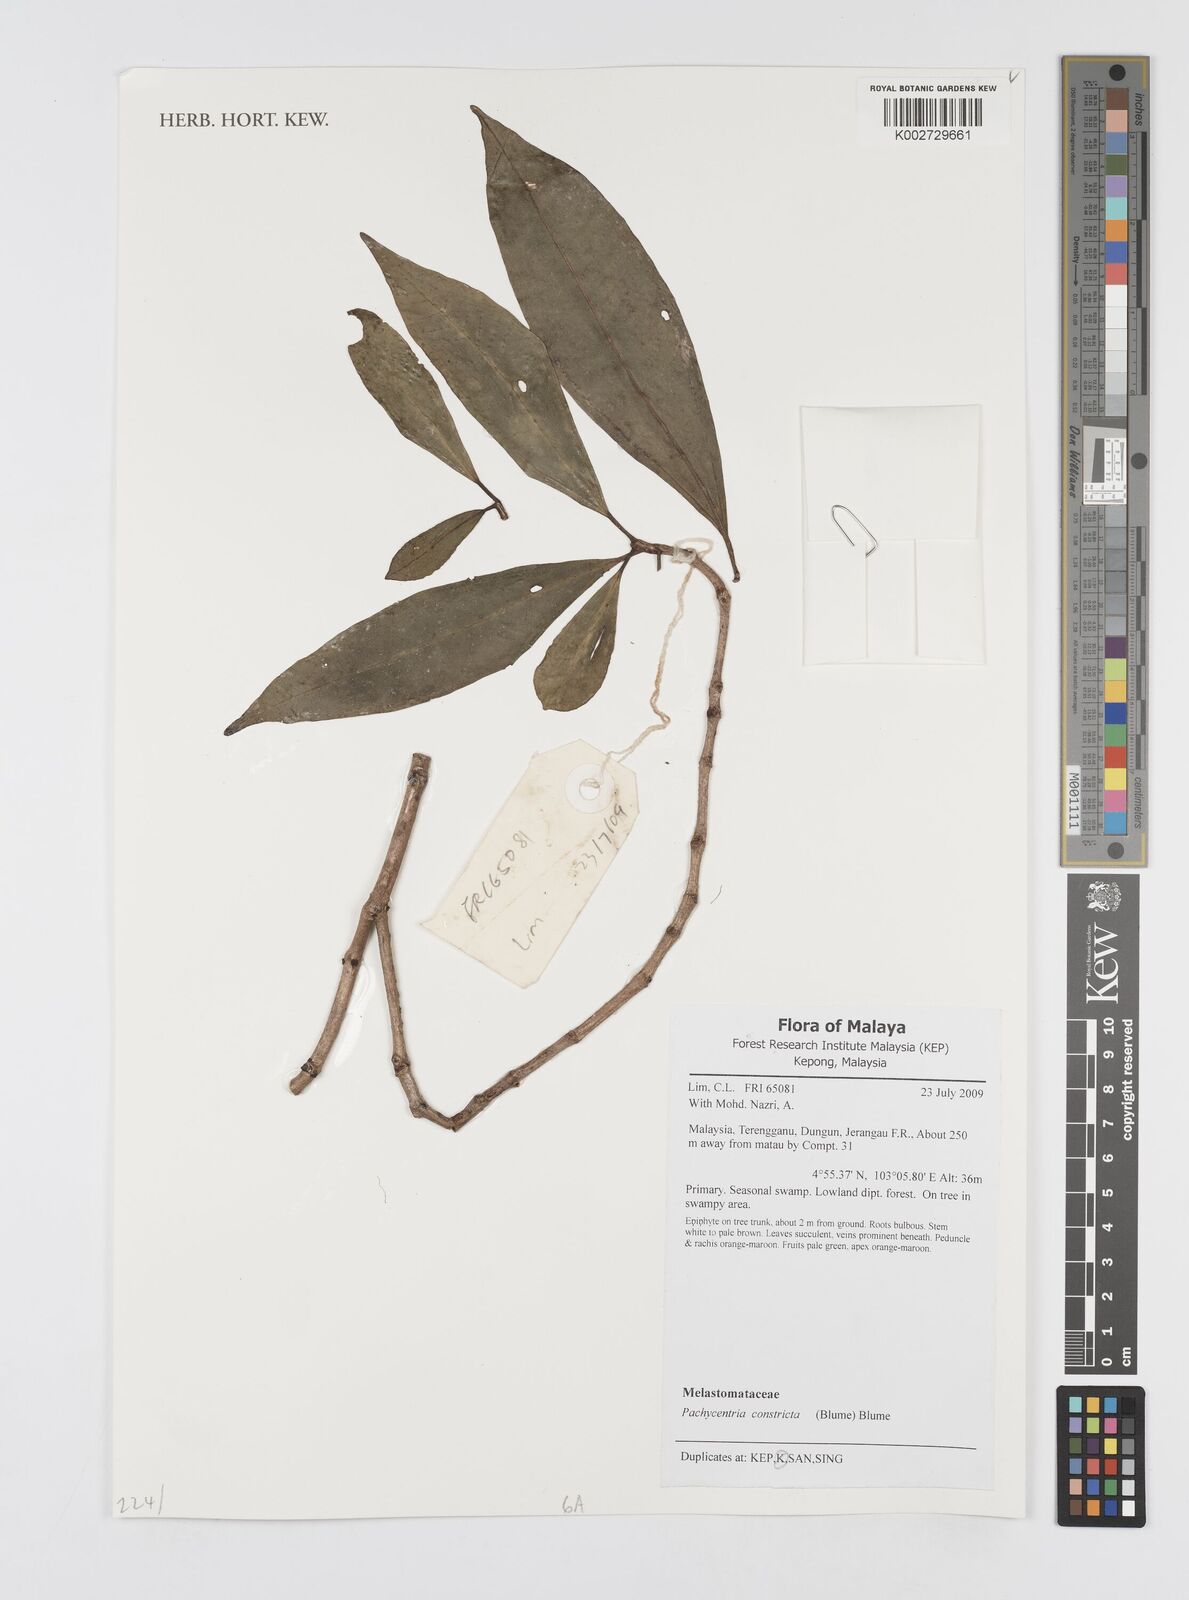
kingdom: Plantae
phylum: Tracheophyta
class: Magnoliopsida
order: Myrtales
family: Melastomataceae
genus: Pachycentria
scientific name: Pachycentria constricta
